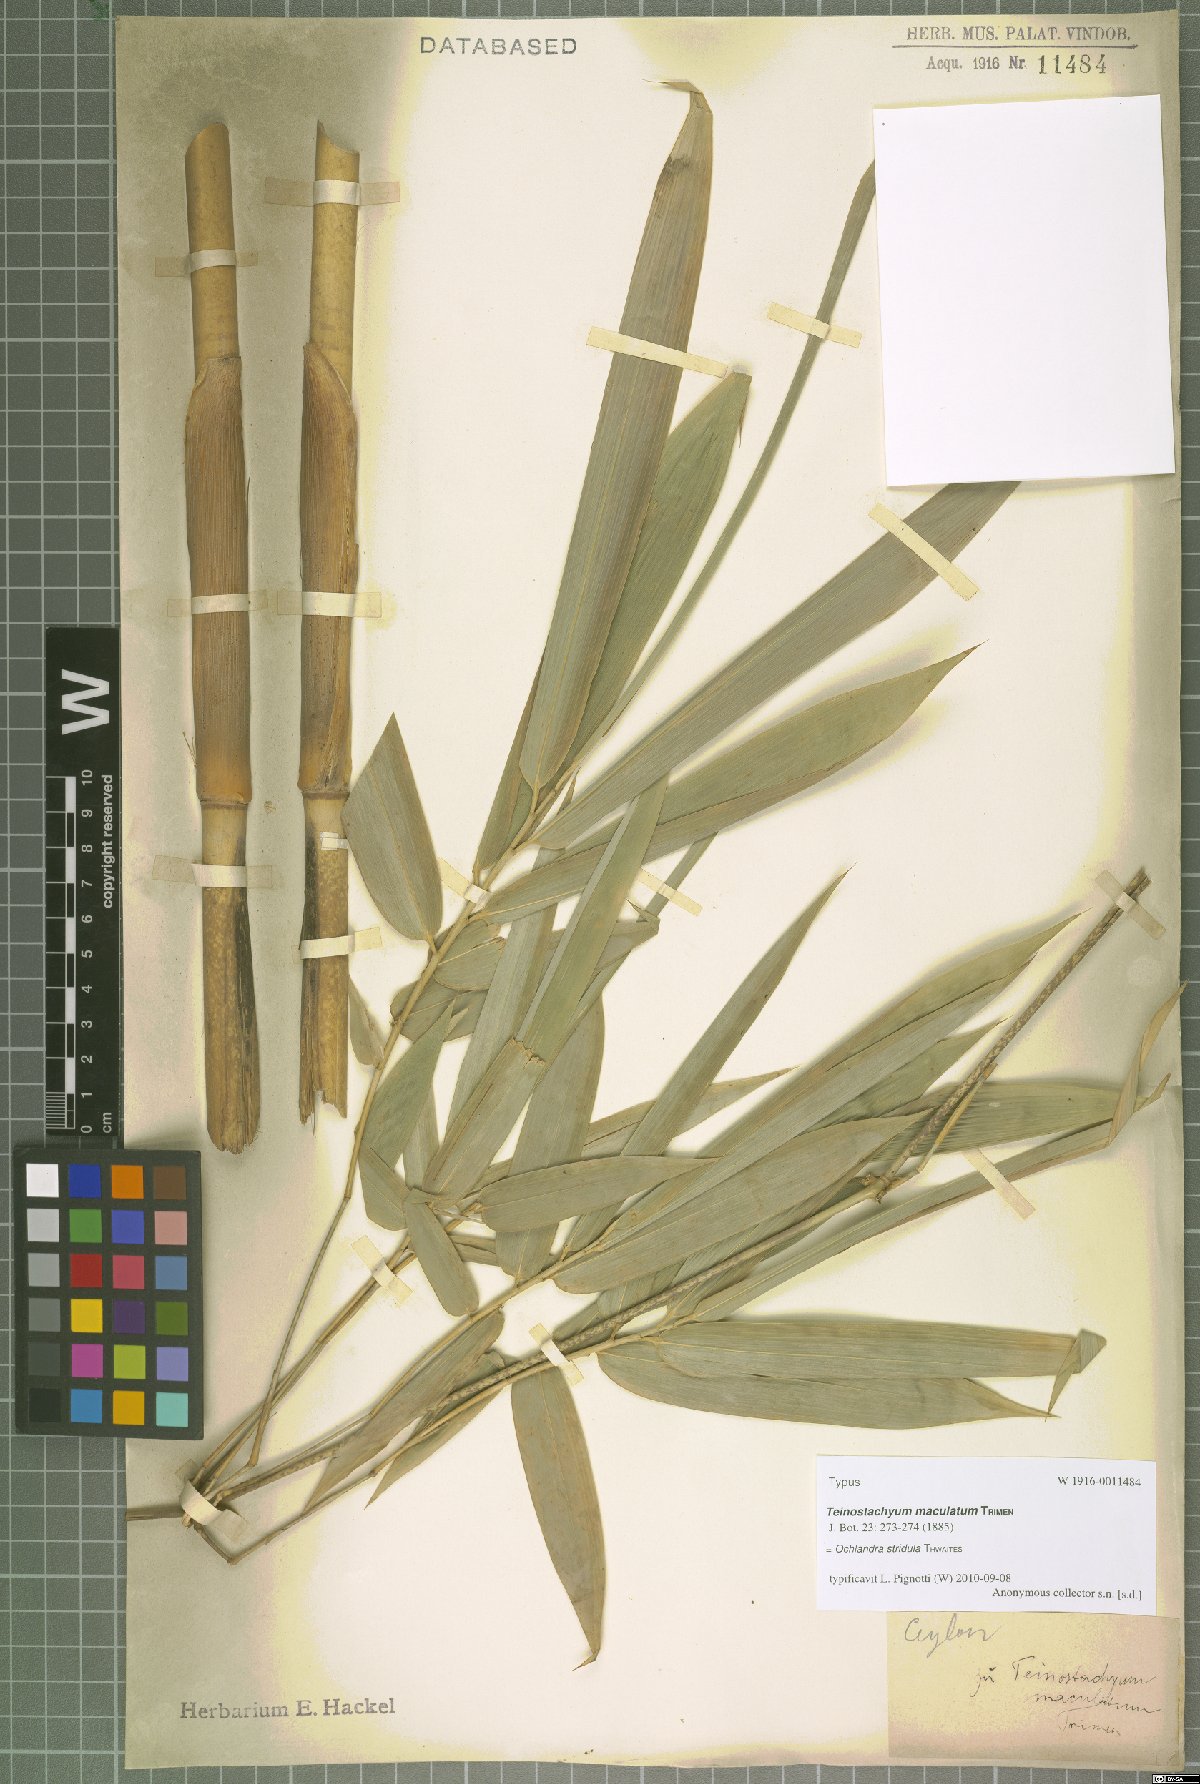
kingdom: Plantae
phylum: Tracheophyta
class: Liliopsida
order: Poales
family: Poaceae
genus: Ochlandra
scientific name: Ochlandra stridula
